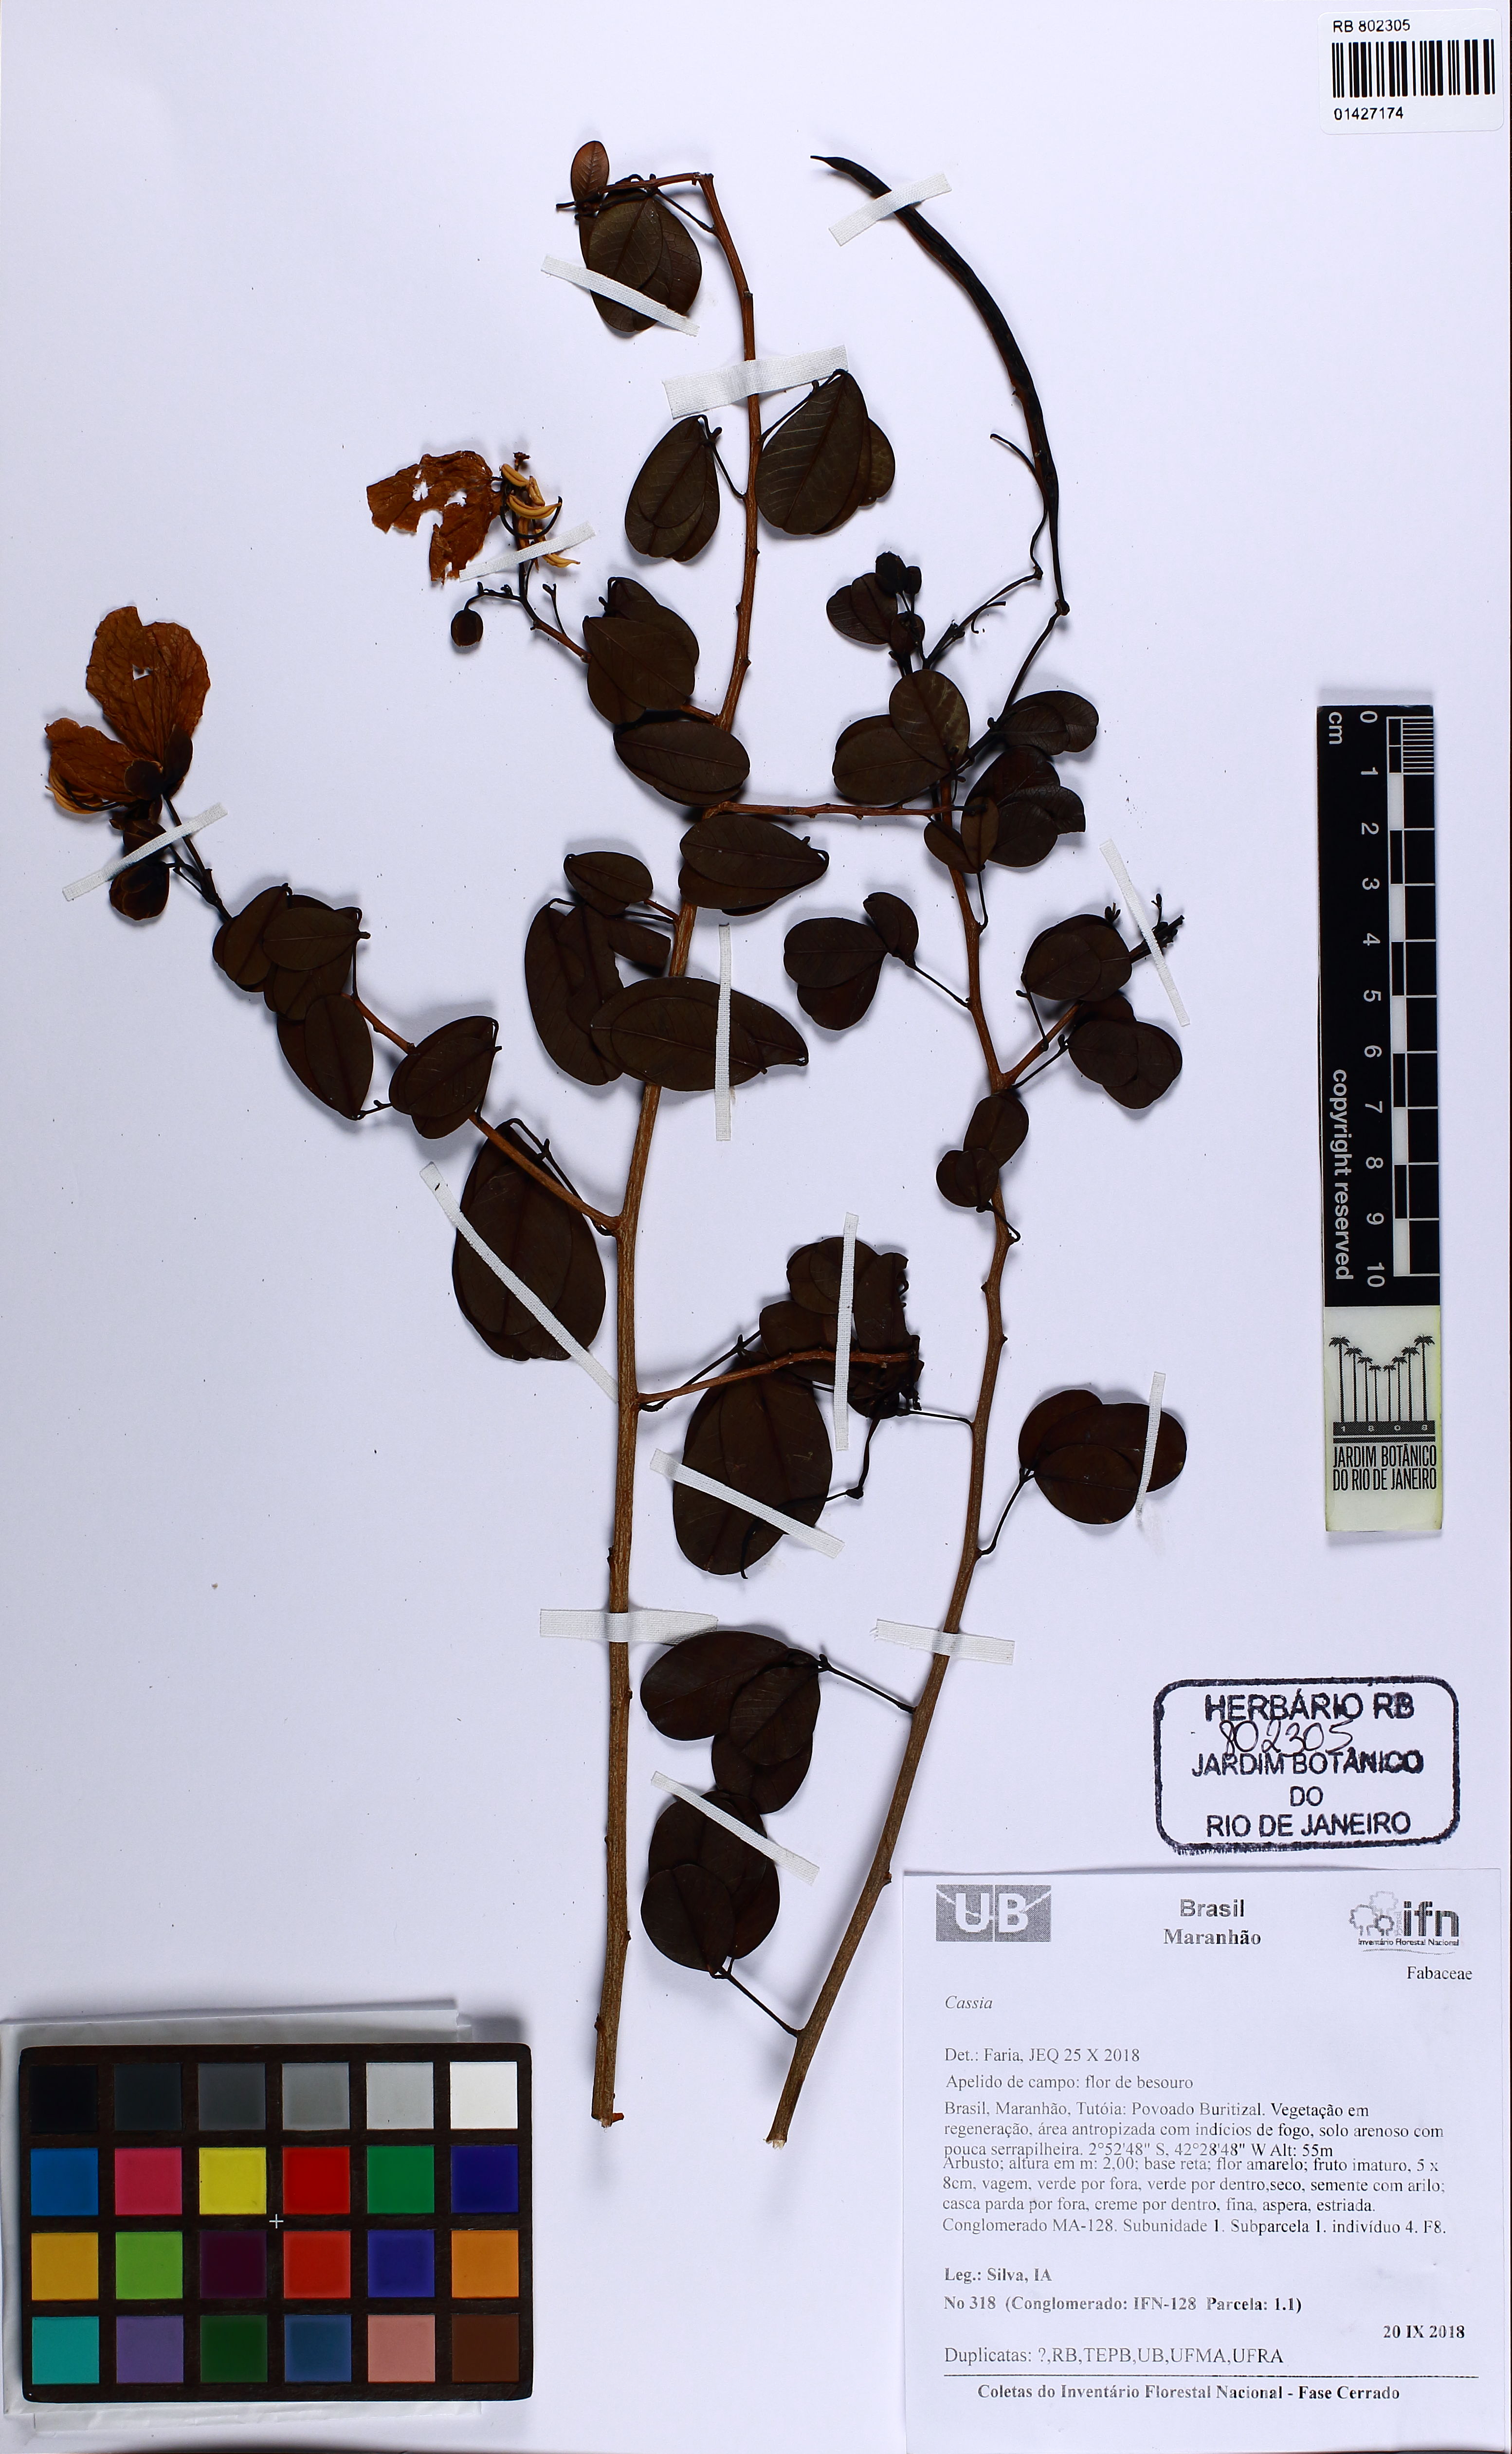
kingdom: Plantae
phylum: Tracheophyta
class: Magnoliopsida
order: Fabales
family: Fabaceae
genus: Senna
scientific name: Senna gardneri
